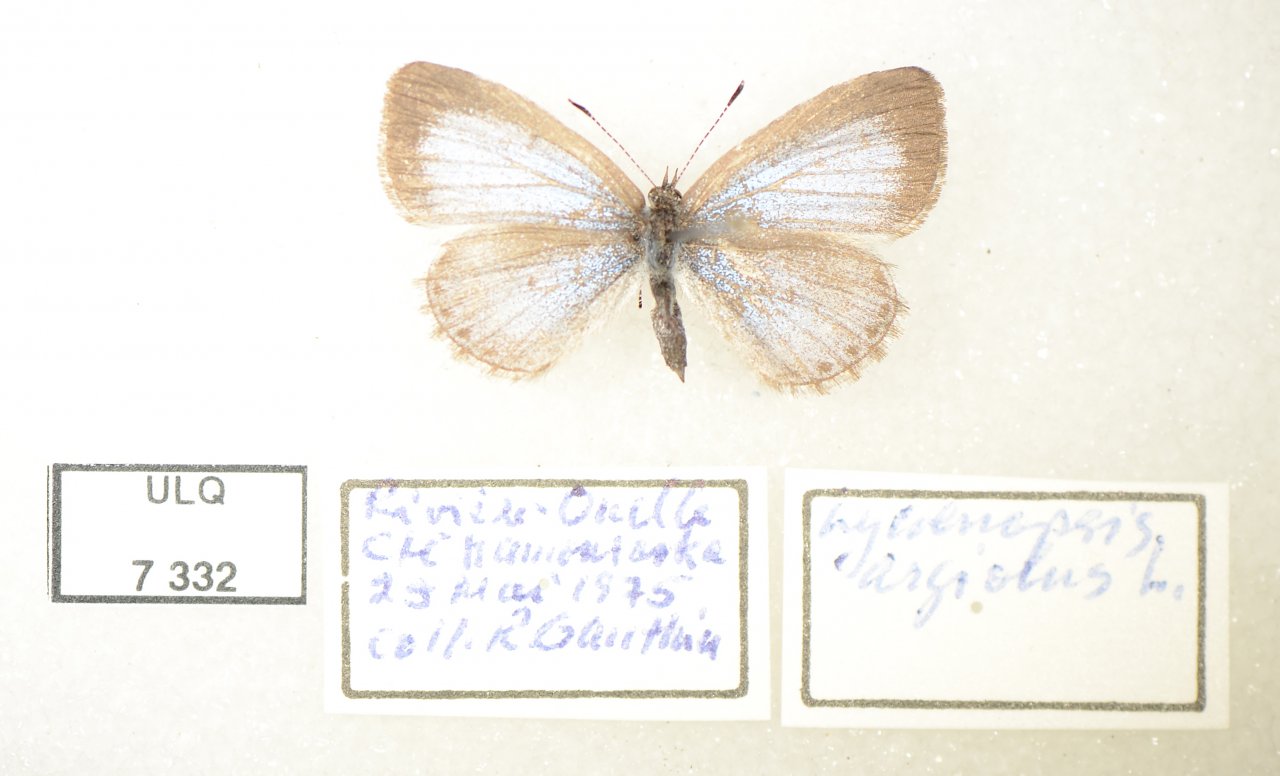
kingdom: Animalia
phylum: Arthropoda
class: Insecta
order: Lepidoptera
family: Lycaenidae
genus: Celastrina
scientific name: Celastrina lucia
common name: Northern Spring Azure
